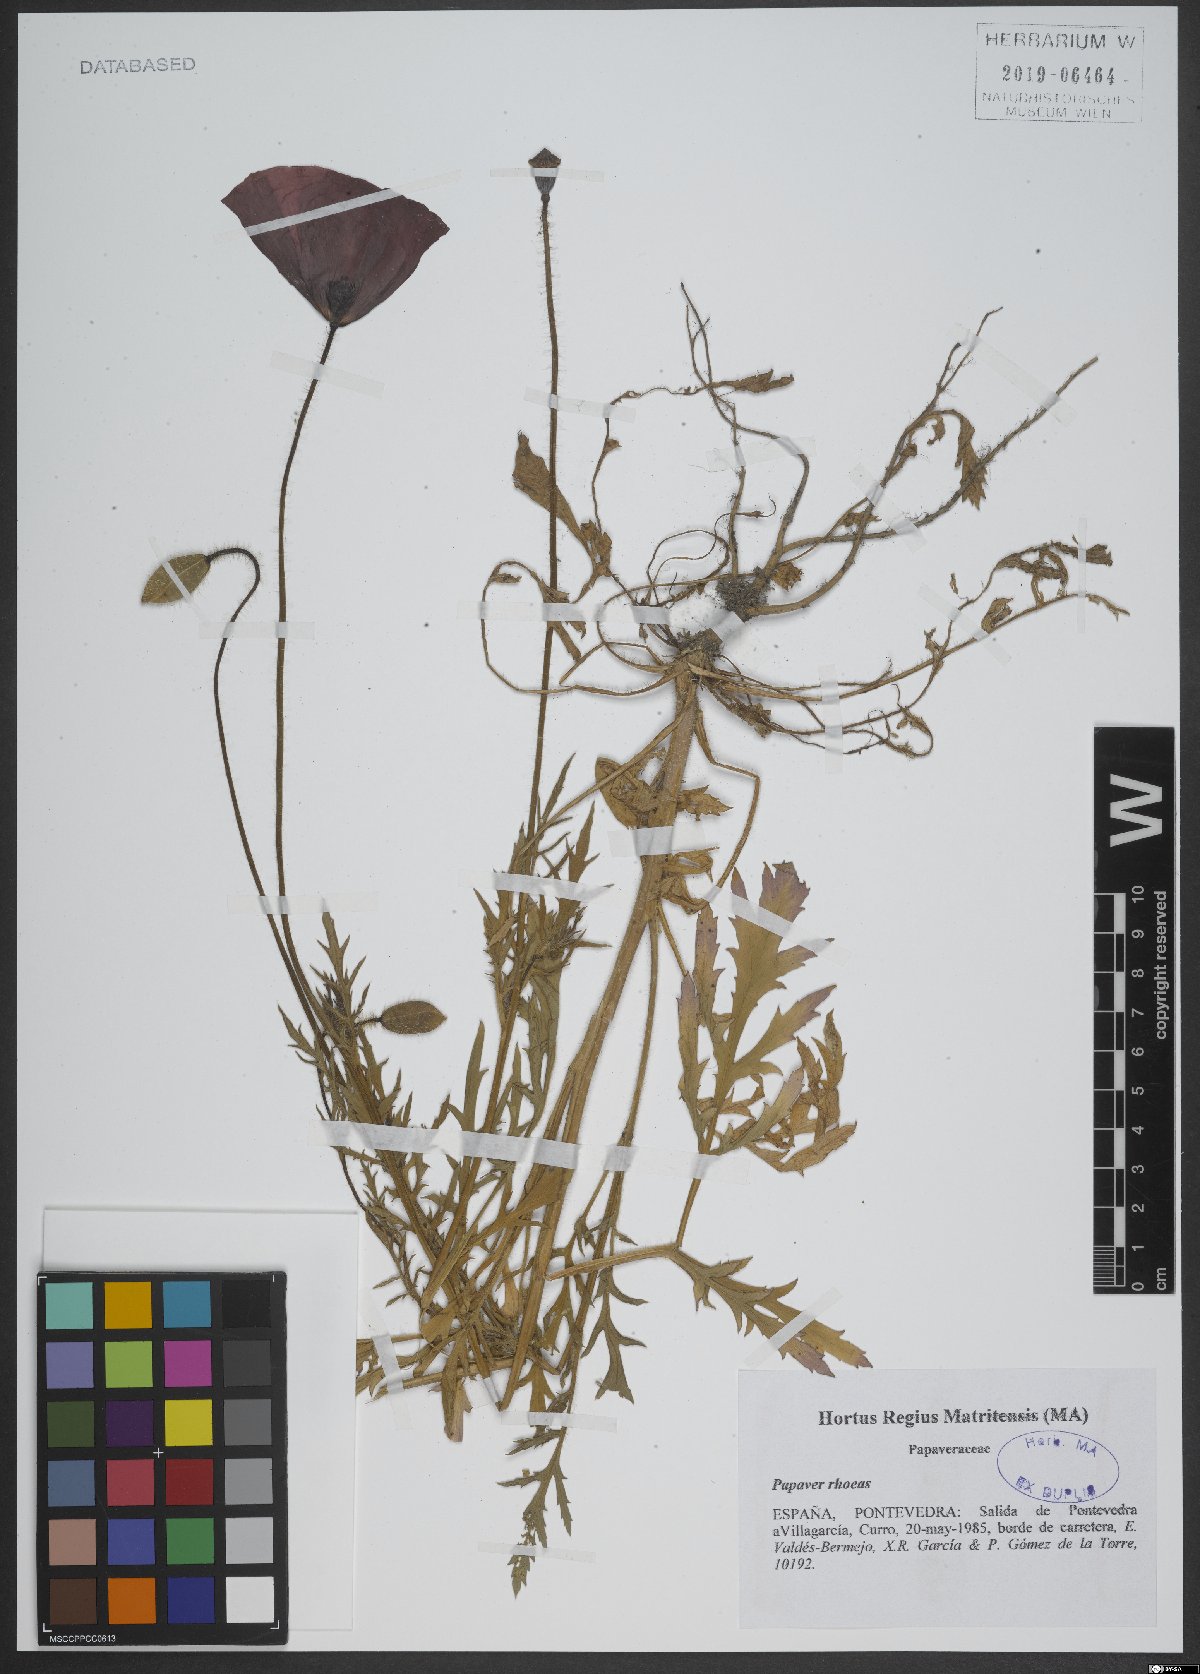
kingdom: Plantae
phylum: Tracheophyta
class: Magnoliopsida
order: Ranunculales
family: Papaveraceae
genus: Papaver
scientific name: Papaver rhoeas
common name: Corn poppy
